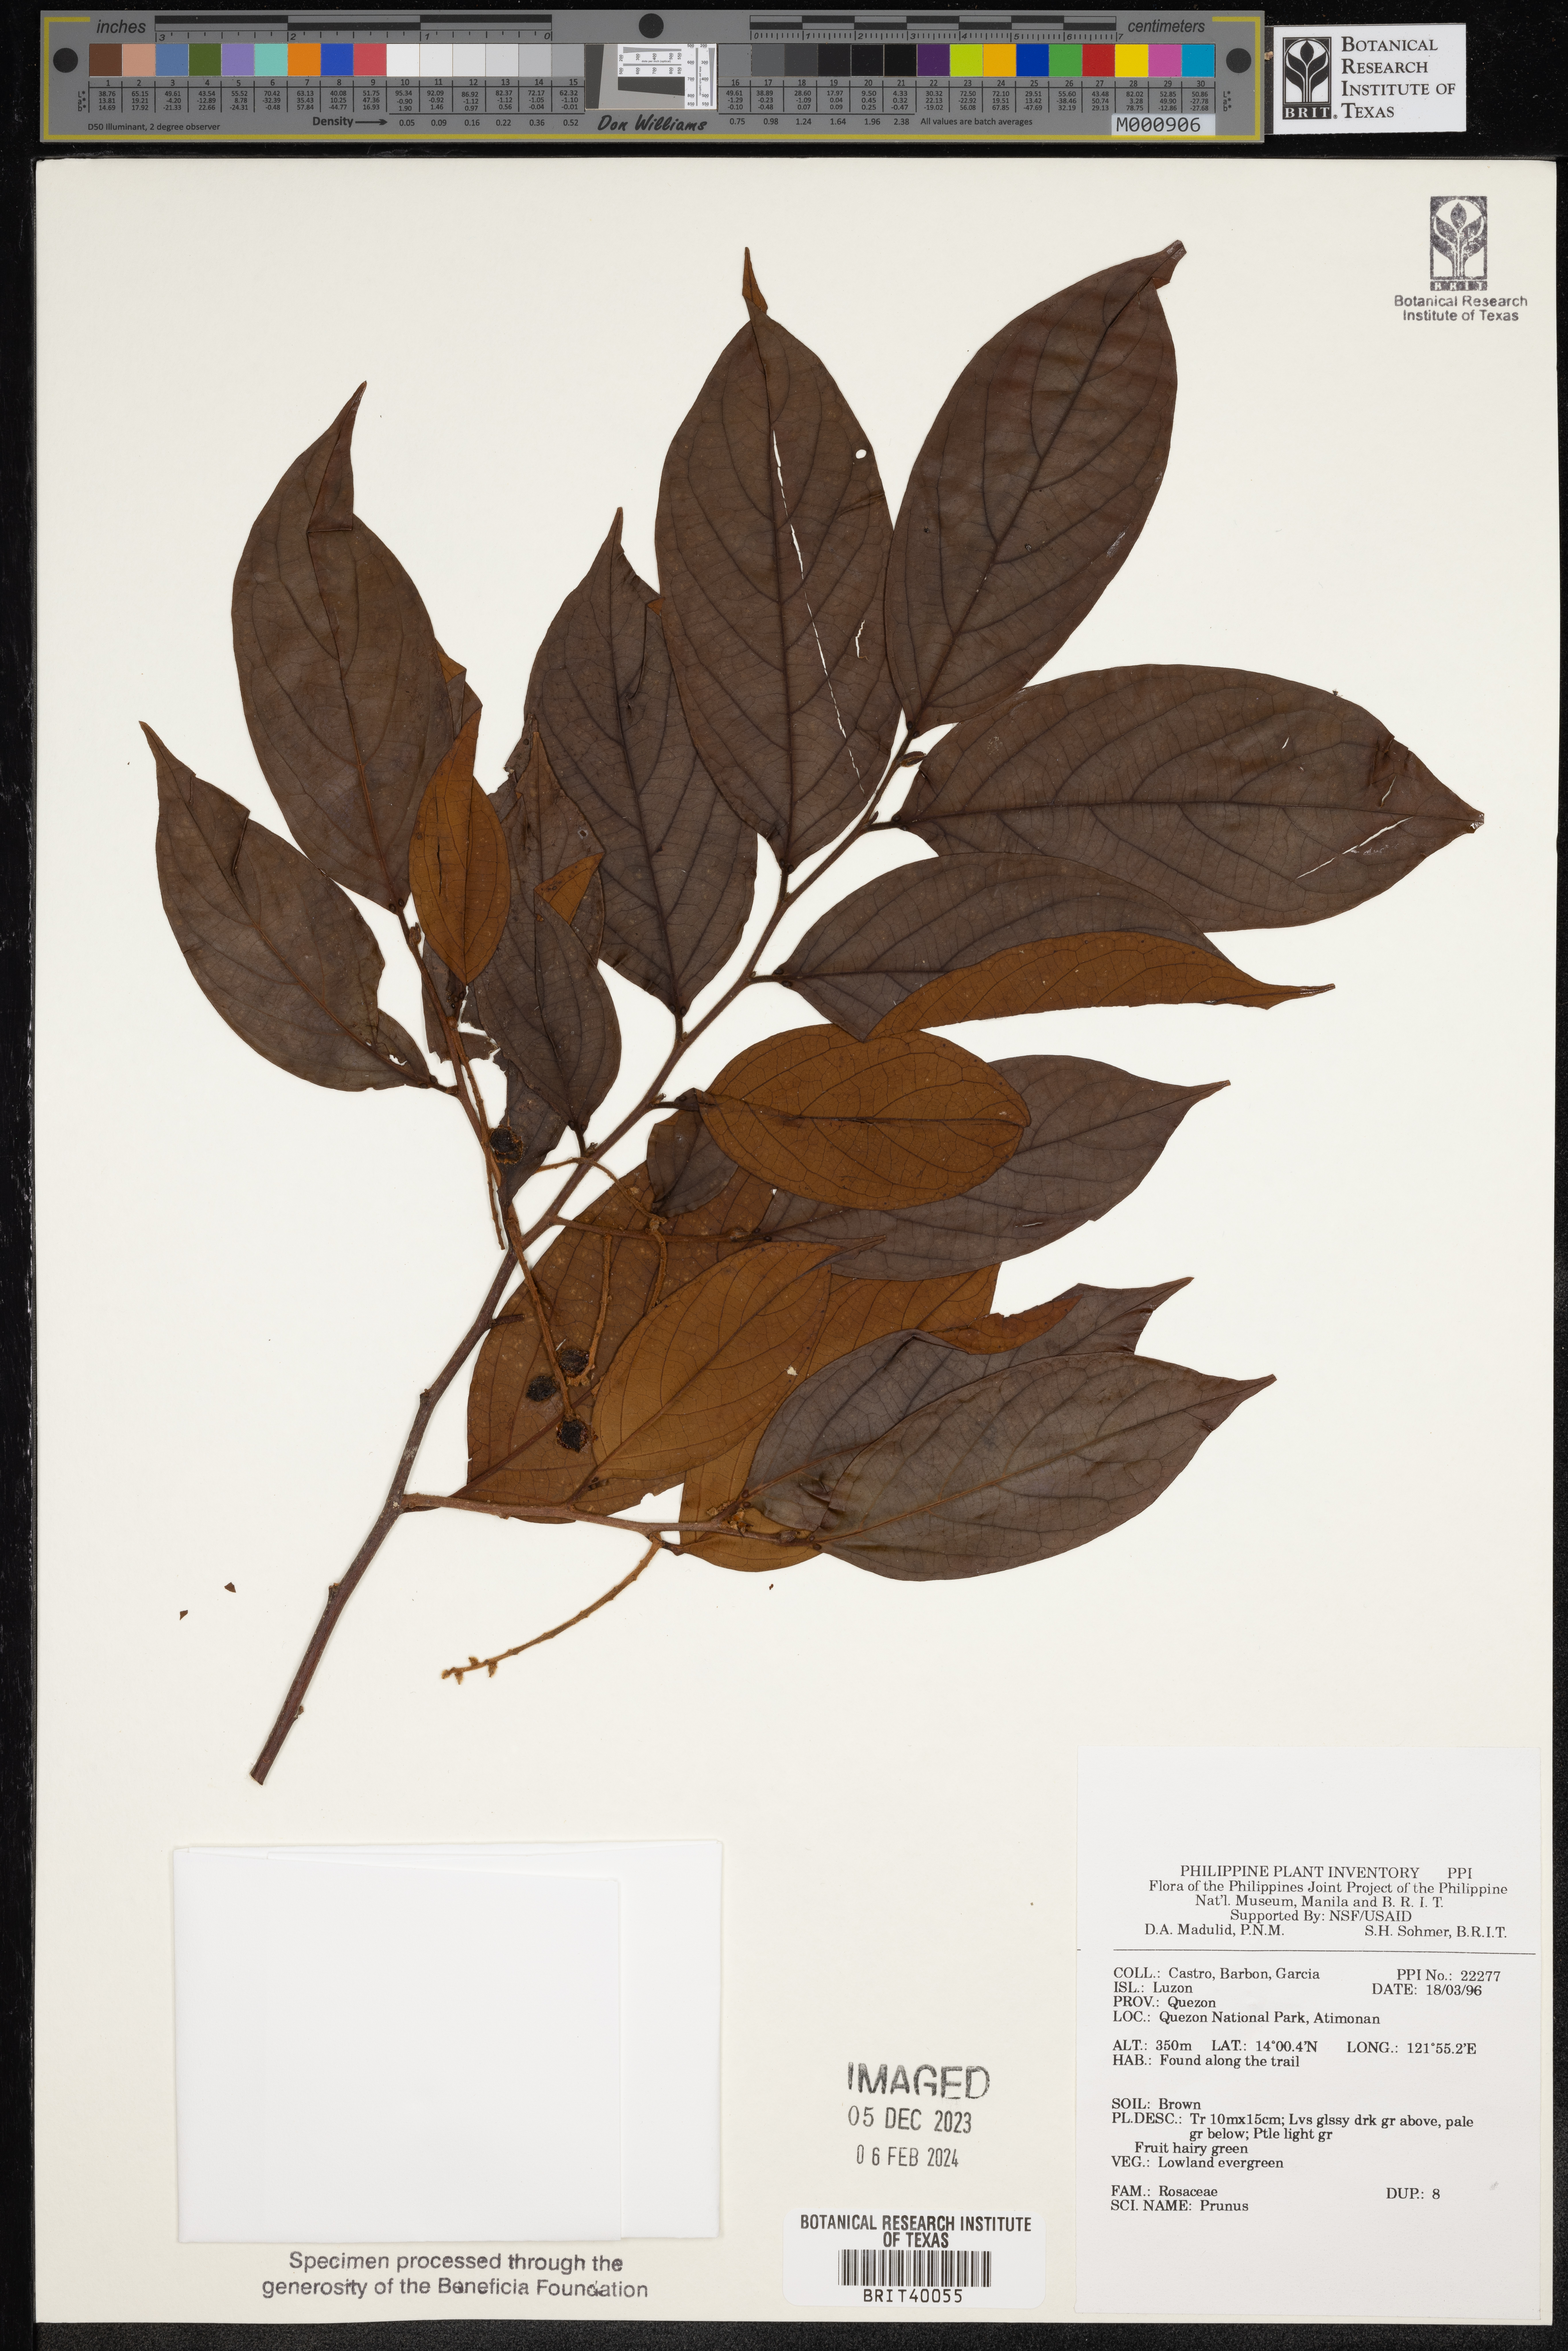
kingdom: Plantae
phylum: Tracheophyta
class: Magnoliopsida
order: Rosales
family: Rosaceae
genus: Prunus
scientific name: Prunus
